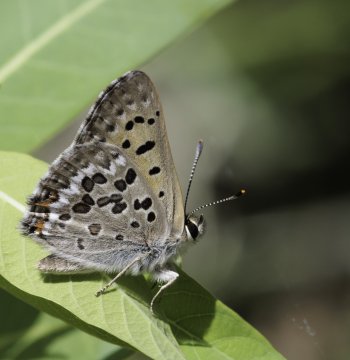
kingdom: Animalia
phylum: Arthropoda
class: Insecta
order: Lepidoptera
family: Lycaenidae
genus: Lycaena
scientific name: Lycaena editha
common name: Edith's Copper
